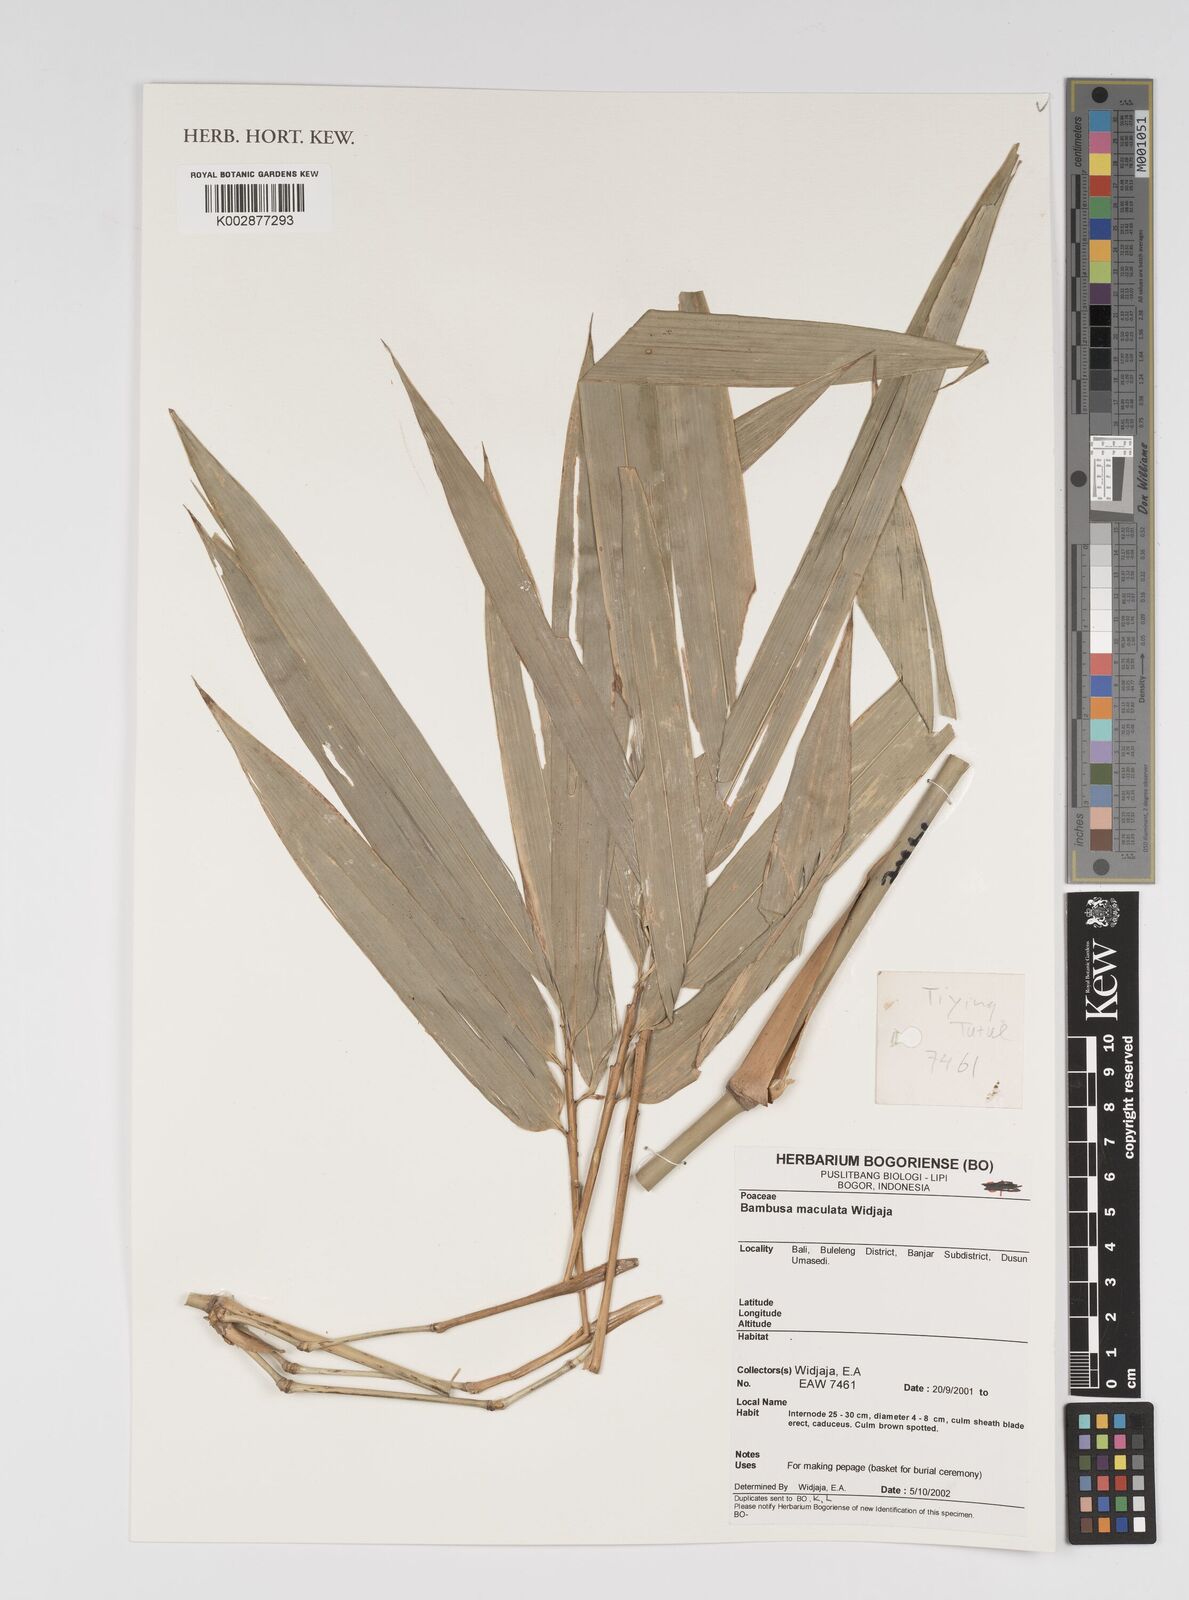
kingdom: Plantae
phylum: Tracheophyta
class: Liliopsida
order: Poales
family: Poaceae
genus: Bambusa
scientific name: Bambusa maculata
